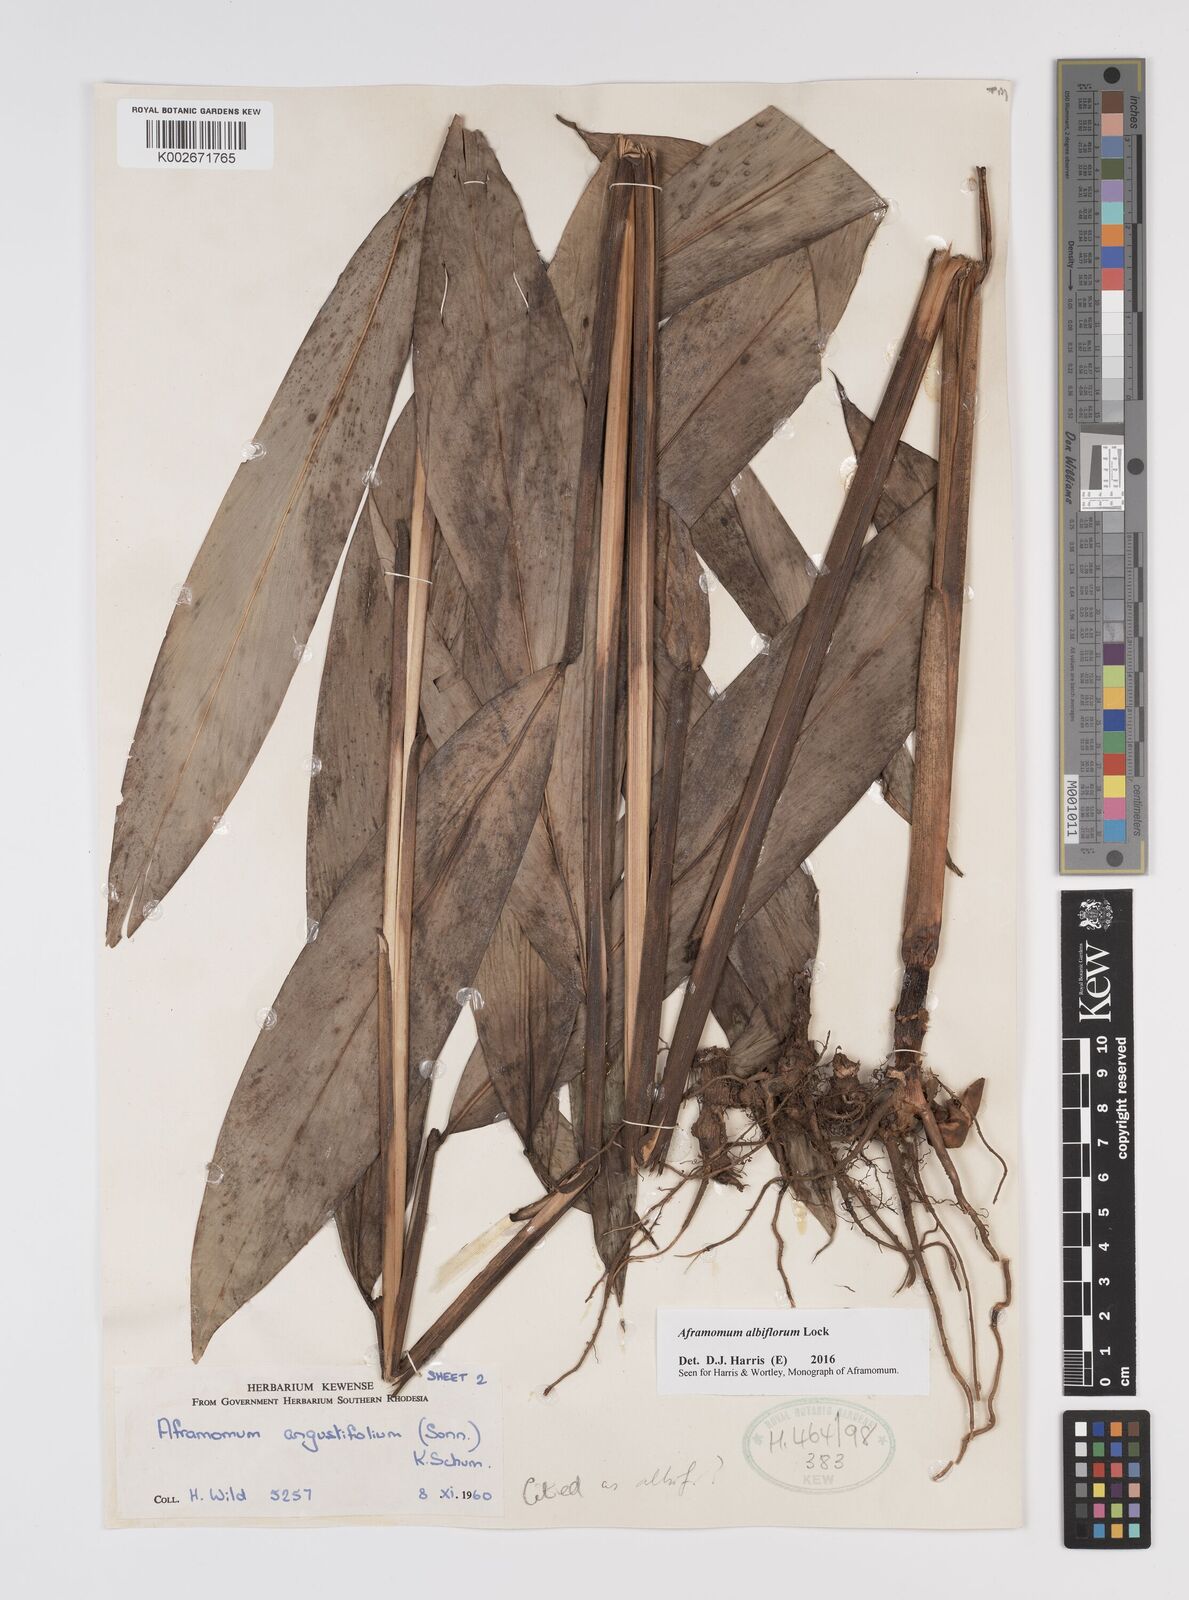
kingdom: Plantae
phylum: Tracheophyta
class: Liliopsida
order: Zingiberales
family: Zingiberaceae
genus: Aframomum
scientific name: Aframomum albiflorum
